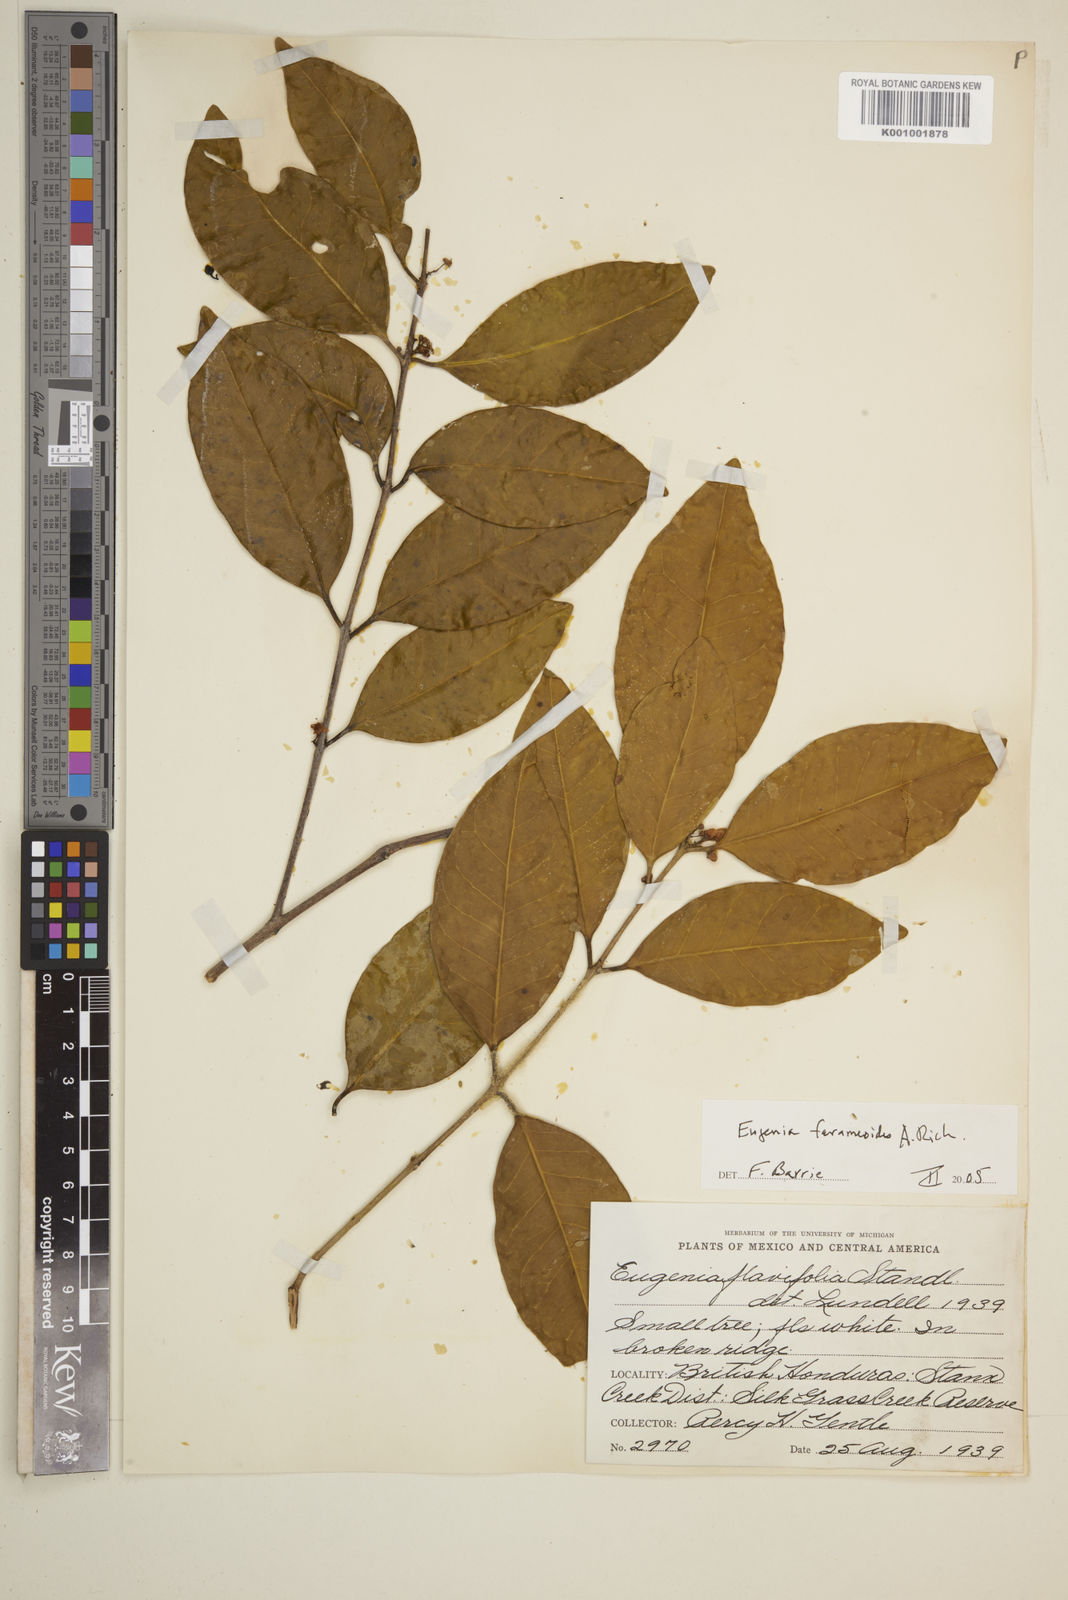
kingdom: Plantae
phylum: Tracheophyta
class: Magnoliopsida
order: Myrtales
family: Myrtaceae
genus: Eugenia
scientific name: Eugenia farameoides
